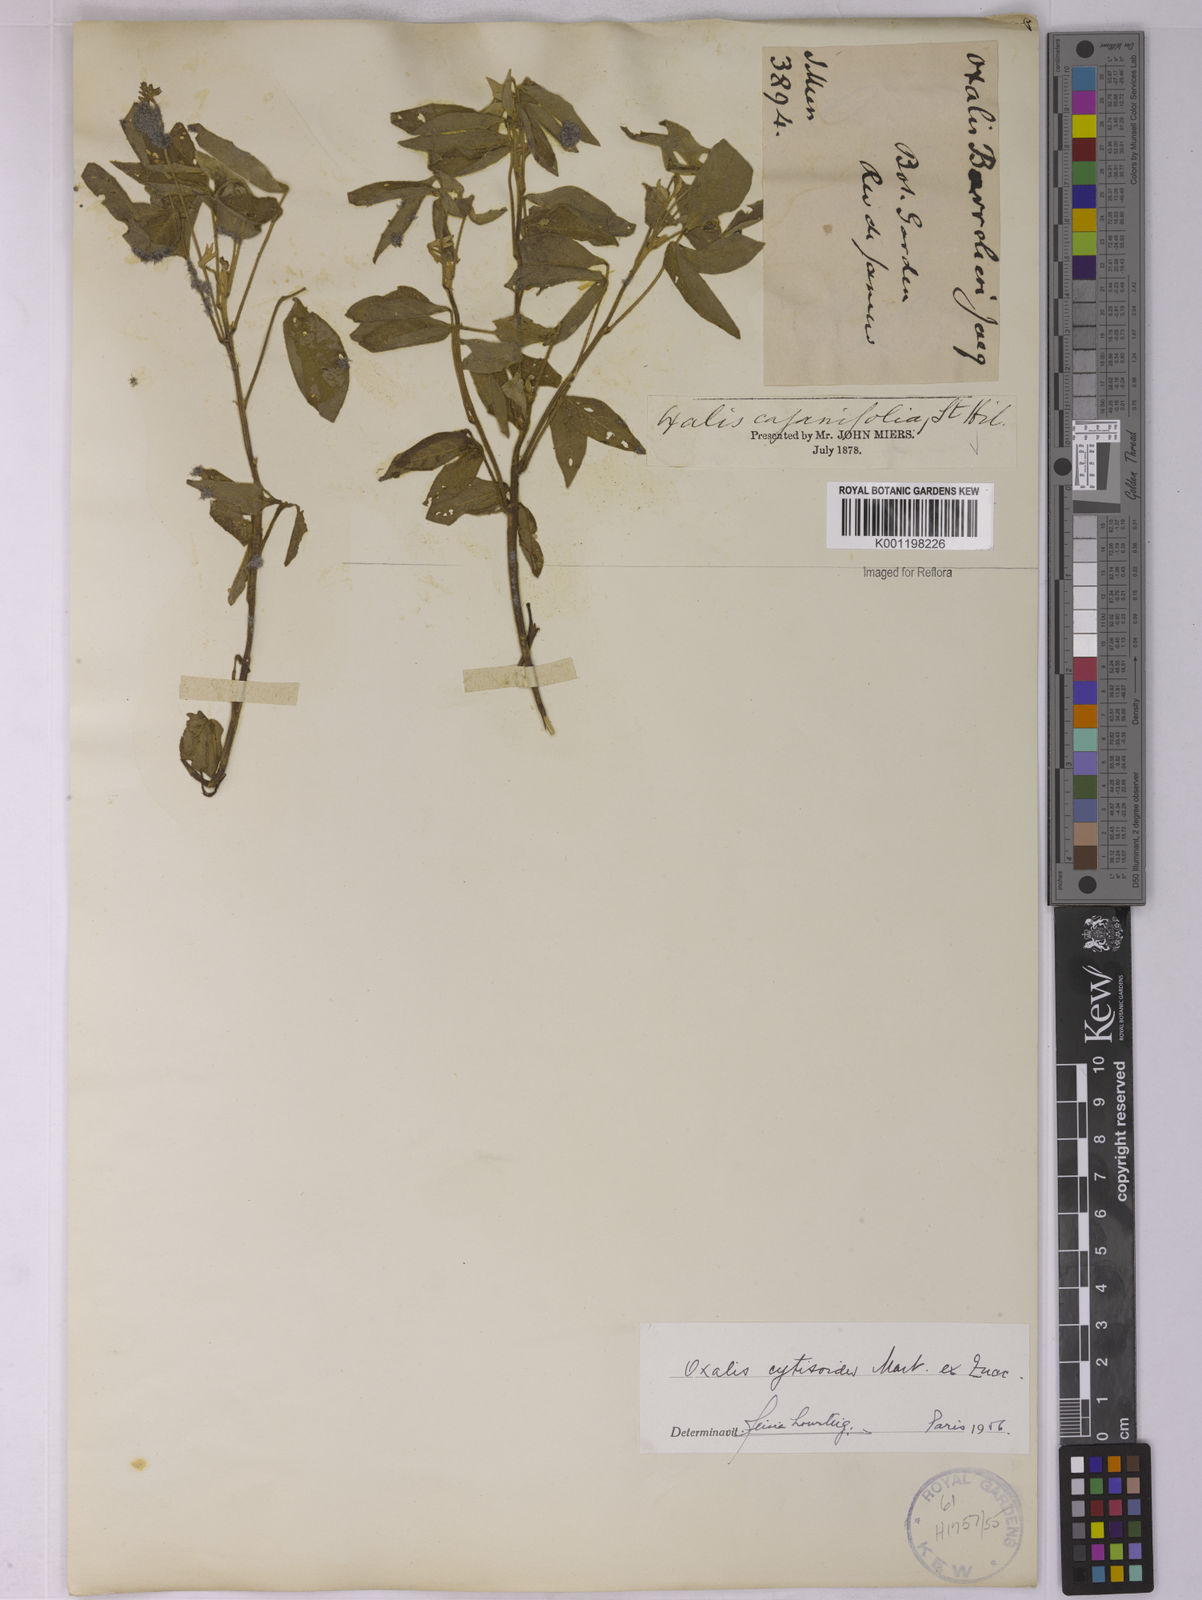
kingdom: Plantae
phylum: Tracheophyta
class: Magnoliopsida
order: Oxalidales
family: Oxalidaceae
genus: Oxalis
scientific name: Oxalis cytisoides
